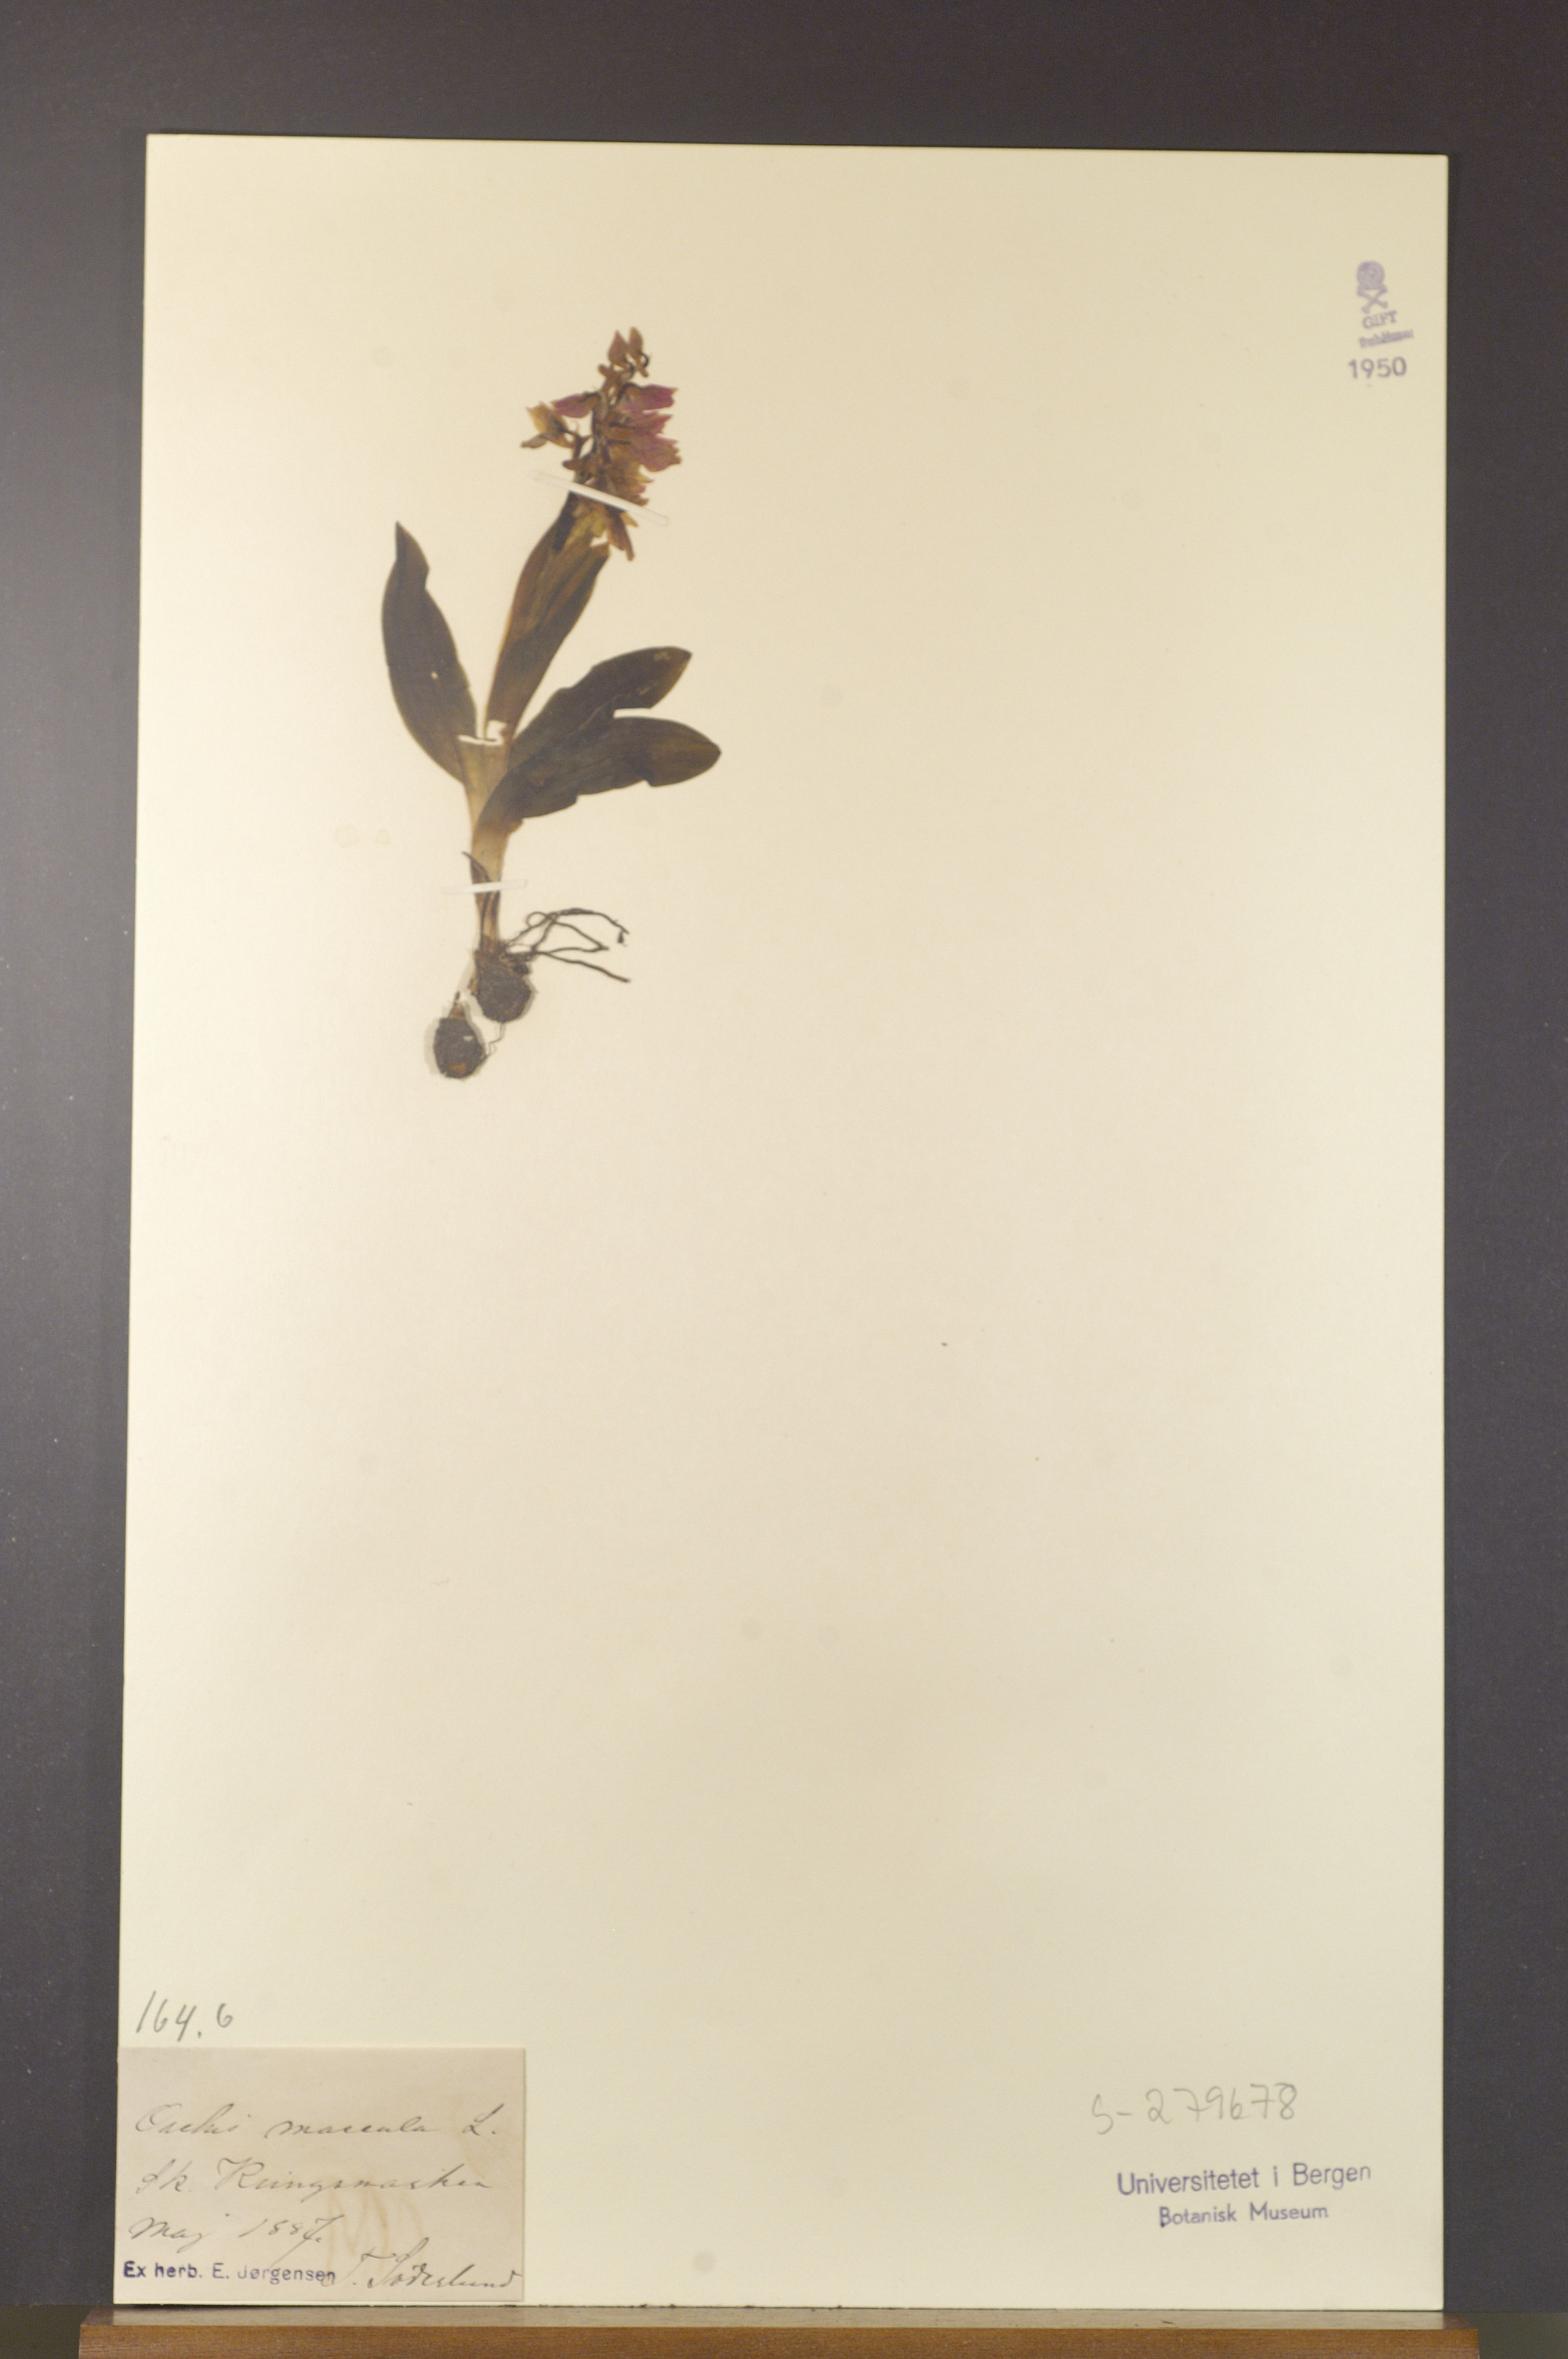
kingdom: Plantae
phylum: Tracheophyta
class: Liliopsida
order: Asparagales
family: Orchidaceae
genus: Orchis
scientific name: Orchis mascula
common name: Early-purple orchid
